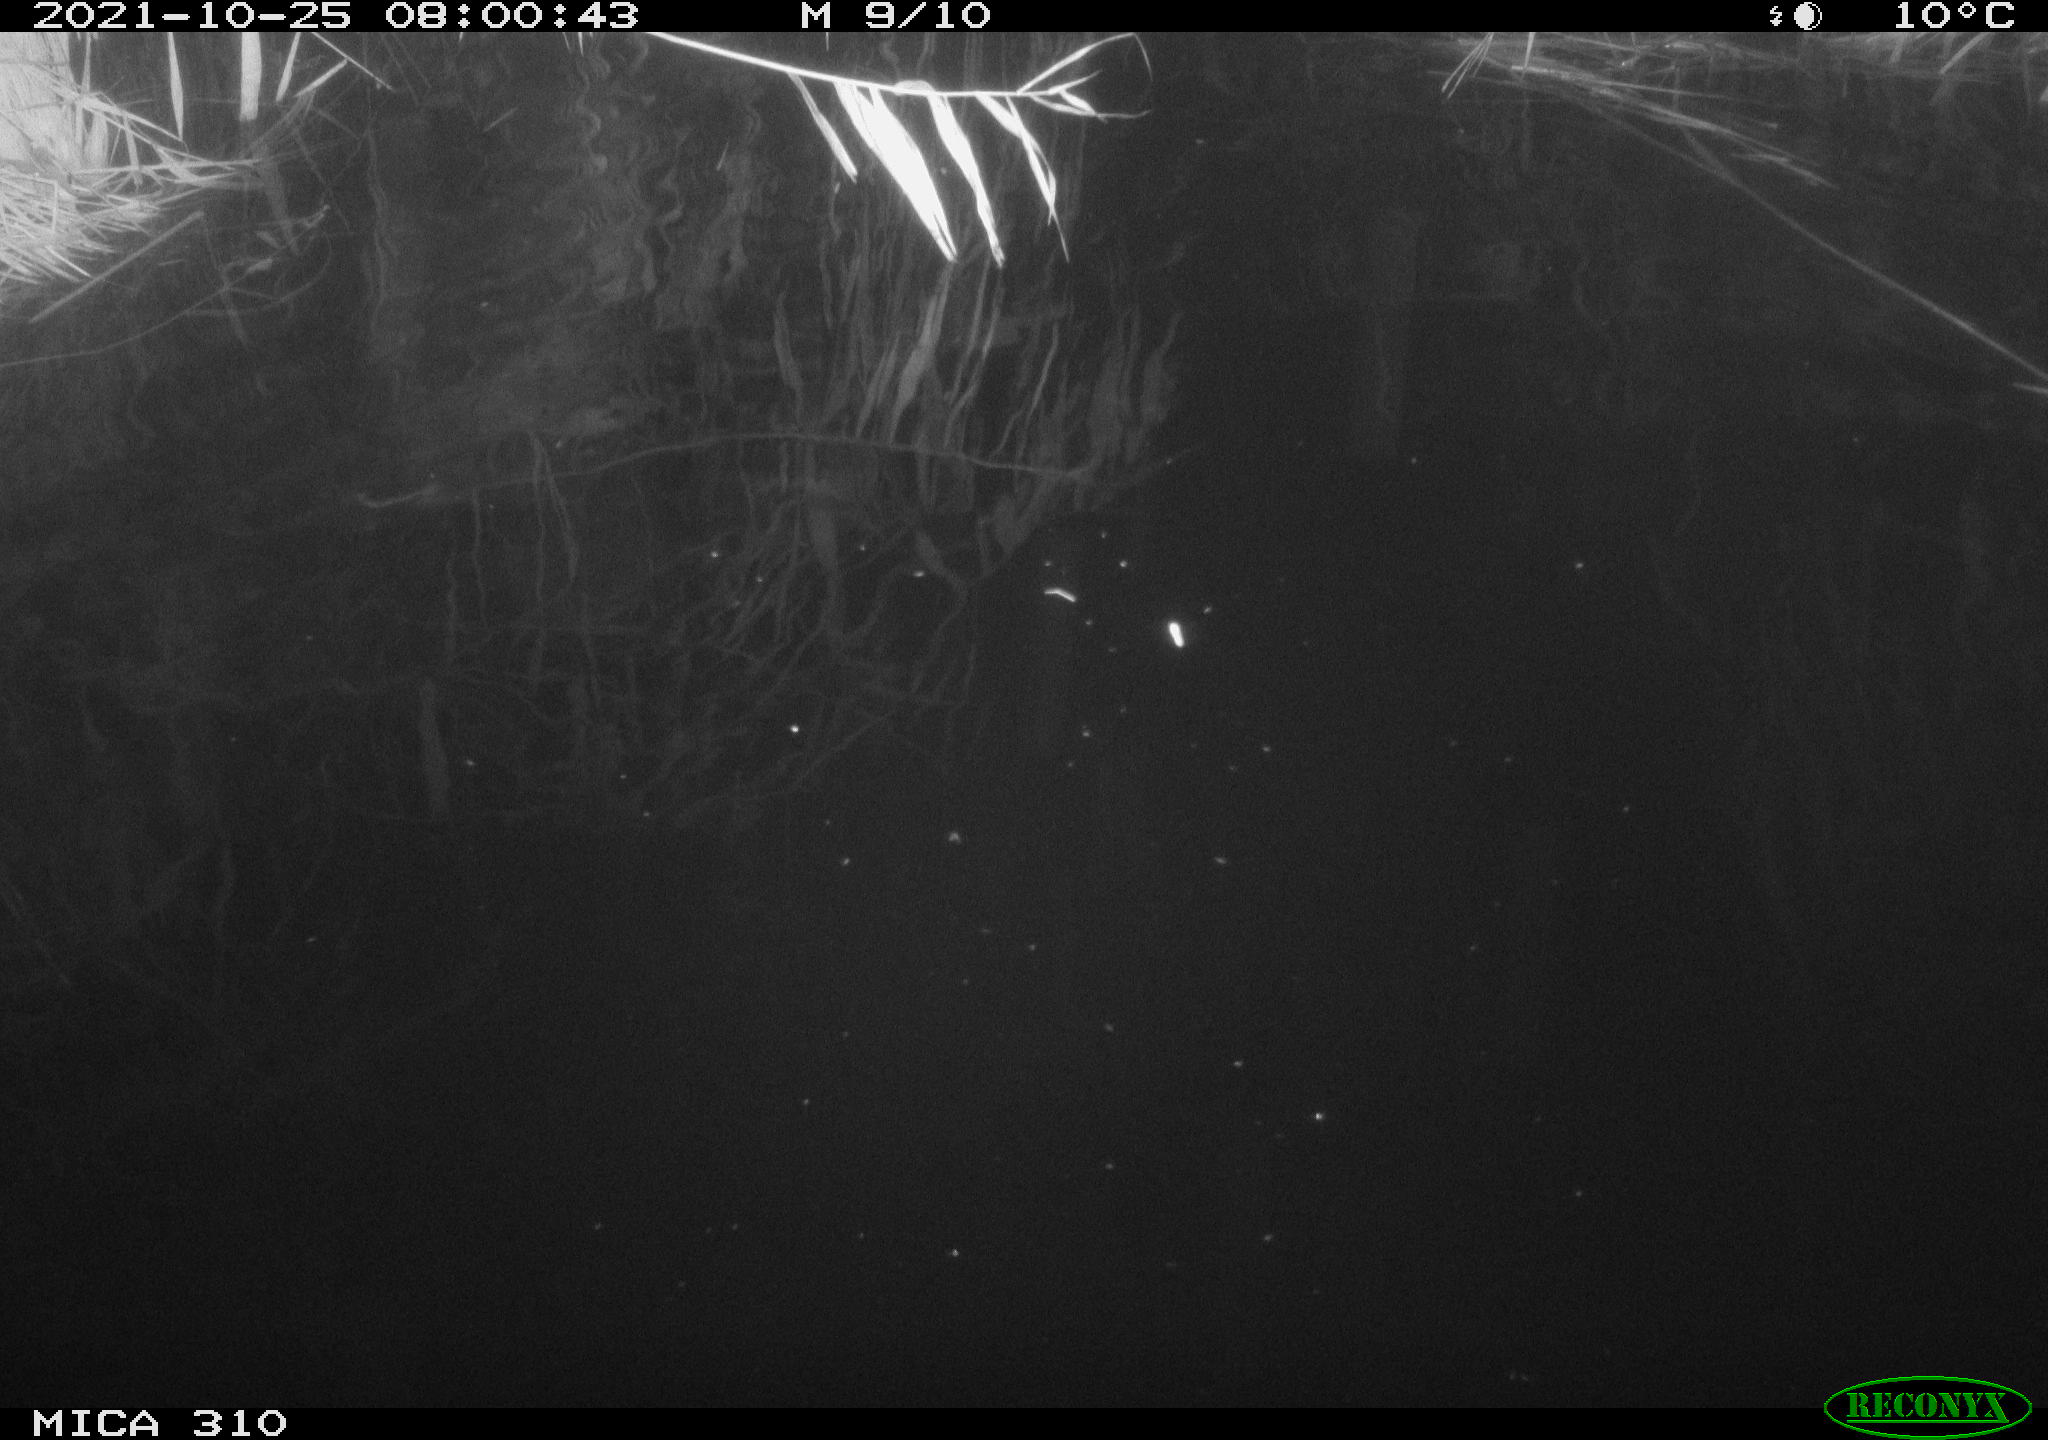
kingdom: Animalia
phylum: Chordata
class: Mammalia
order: Rodentia
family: Muridae
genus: Rattus
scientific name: Rattus norvegicus
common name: Brown rat
